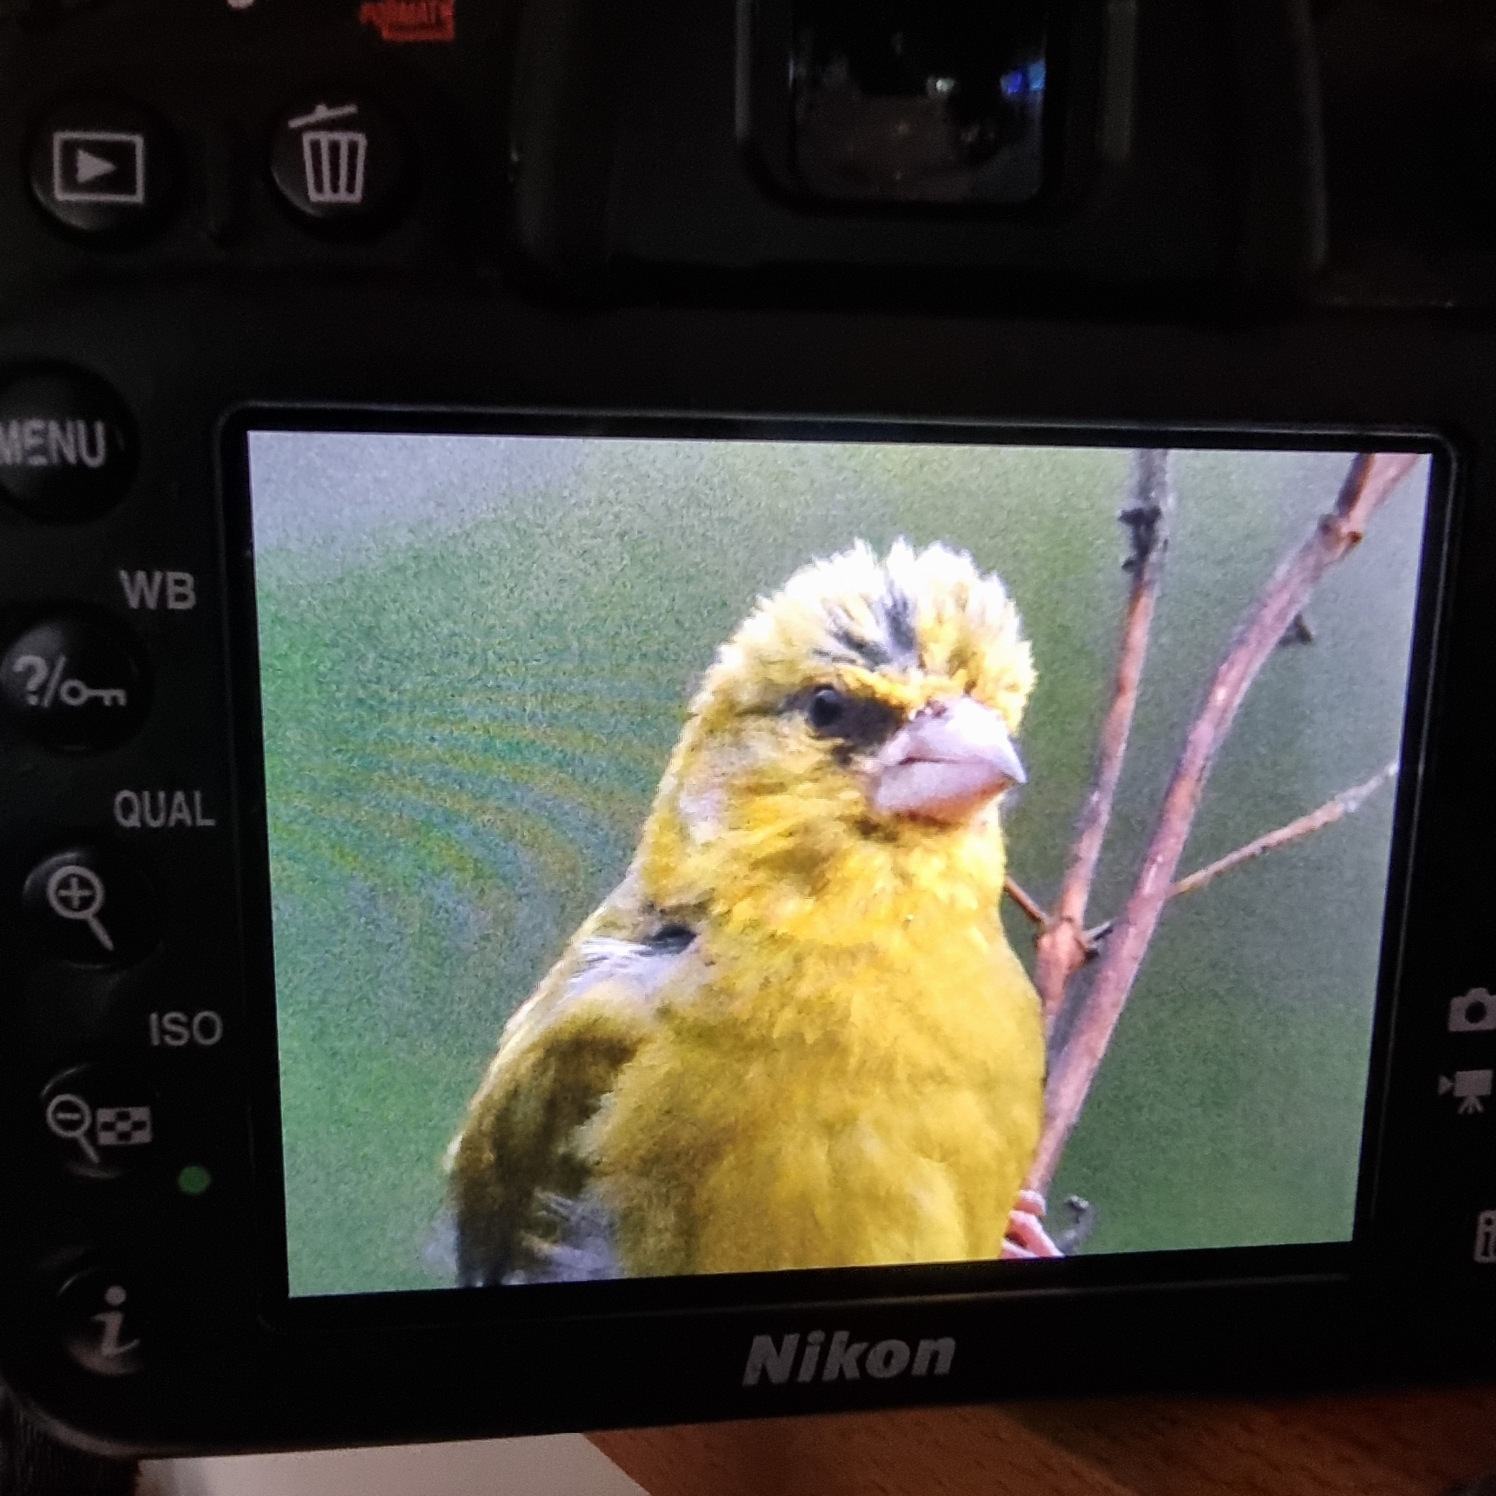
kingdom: Plantae
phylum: Tracheophyta
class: Liliopsida
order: Poales
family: Poaceae
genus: Chloris
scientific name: Chloris chloris
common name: Grønirisk
